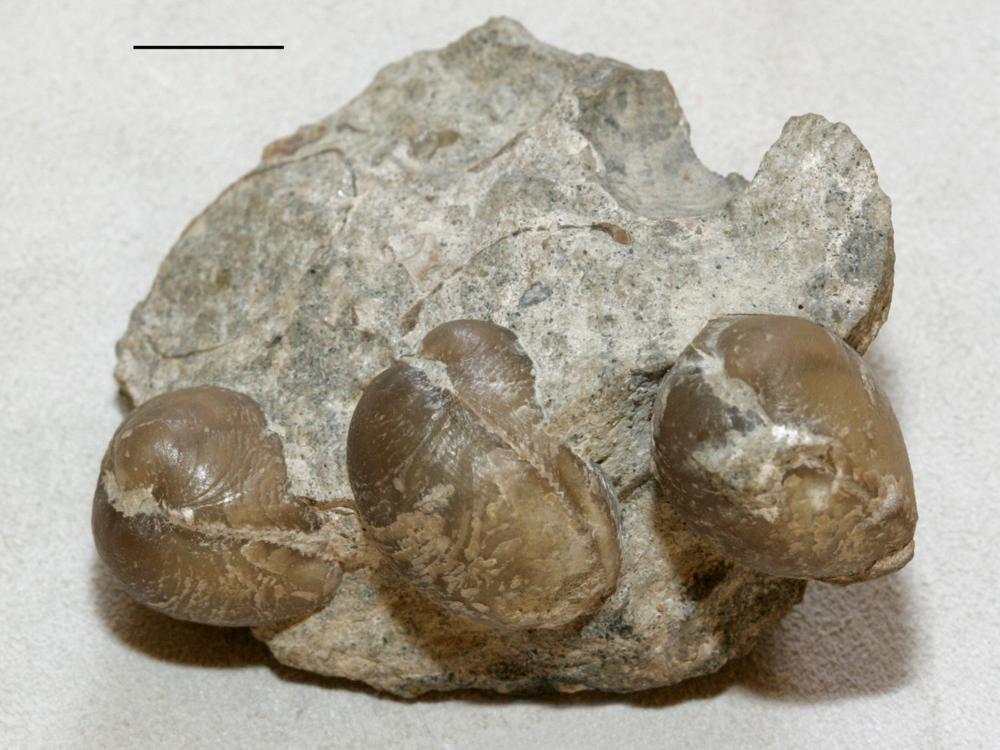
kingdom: Animalia
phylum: Brachiopoda
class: Rhynchonellata
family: Lycophoriidae
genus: Lycophoria
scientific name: Lycophoria Atrypa nucella
